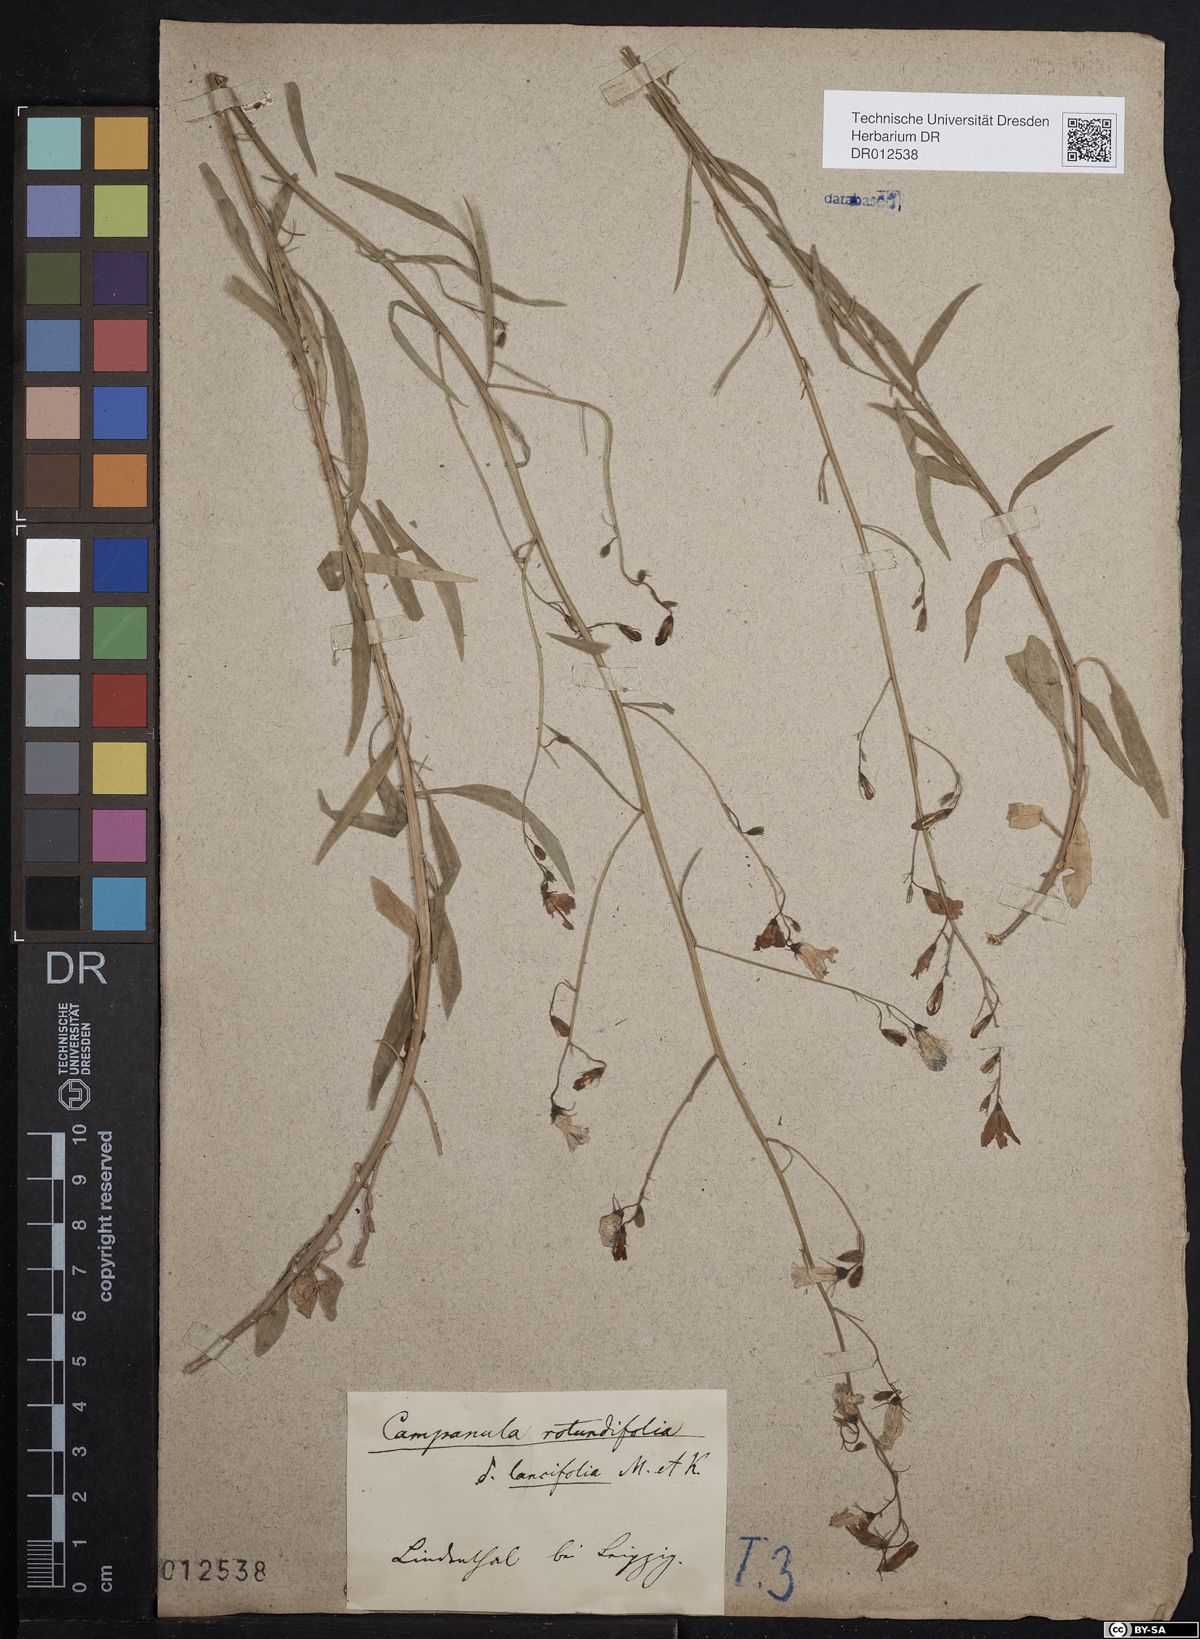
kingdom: Plantae
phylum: Tracheophyta
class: Magnoliopsida
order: Asterales
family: Campanulaceae
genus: Campanula
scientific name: Campanula rotundifolia
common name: Harebell
